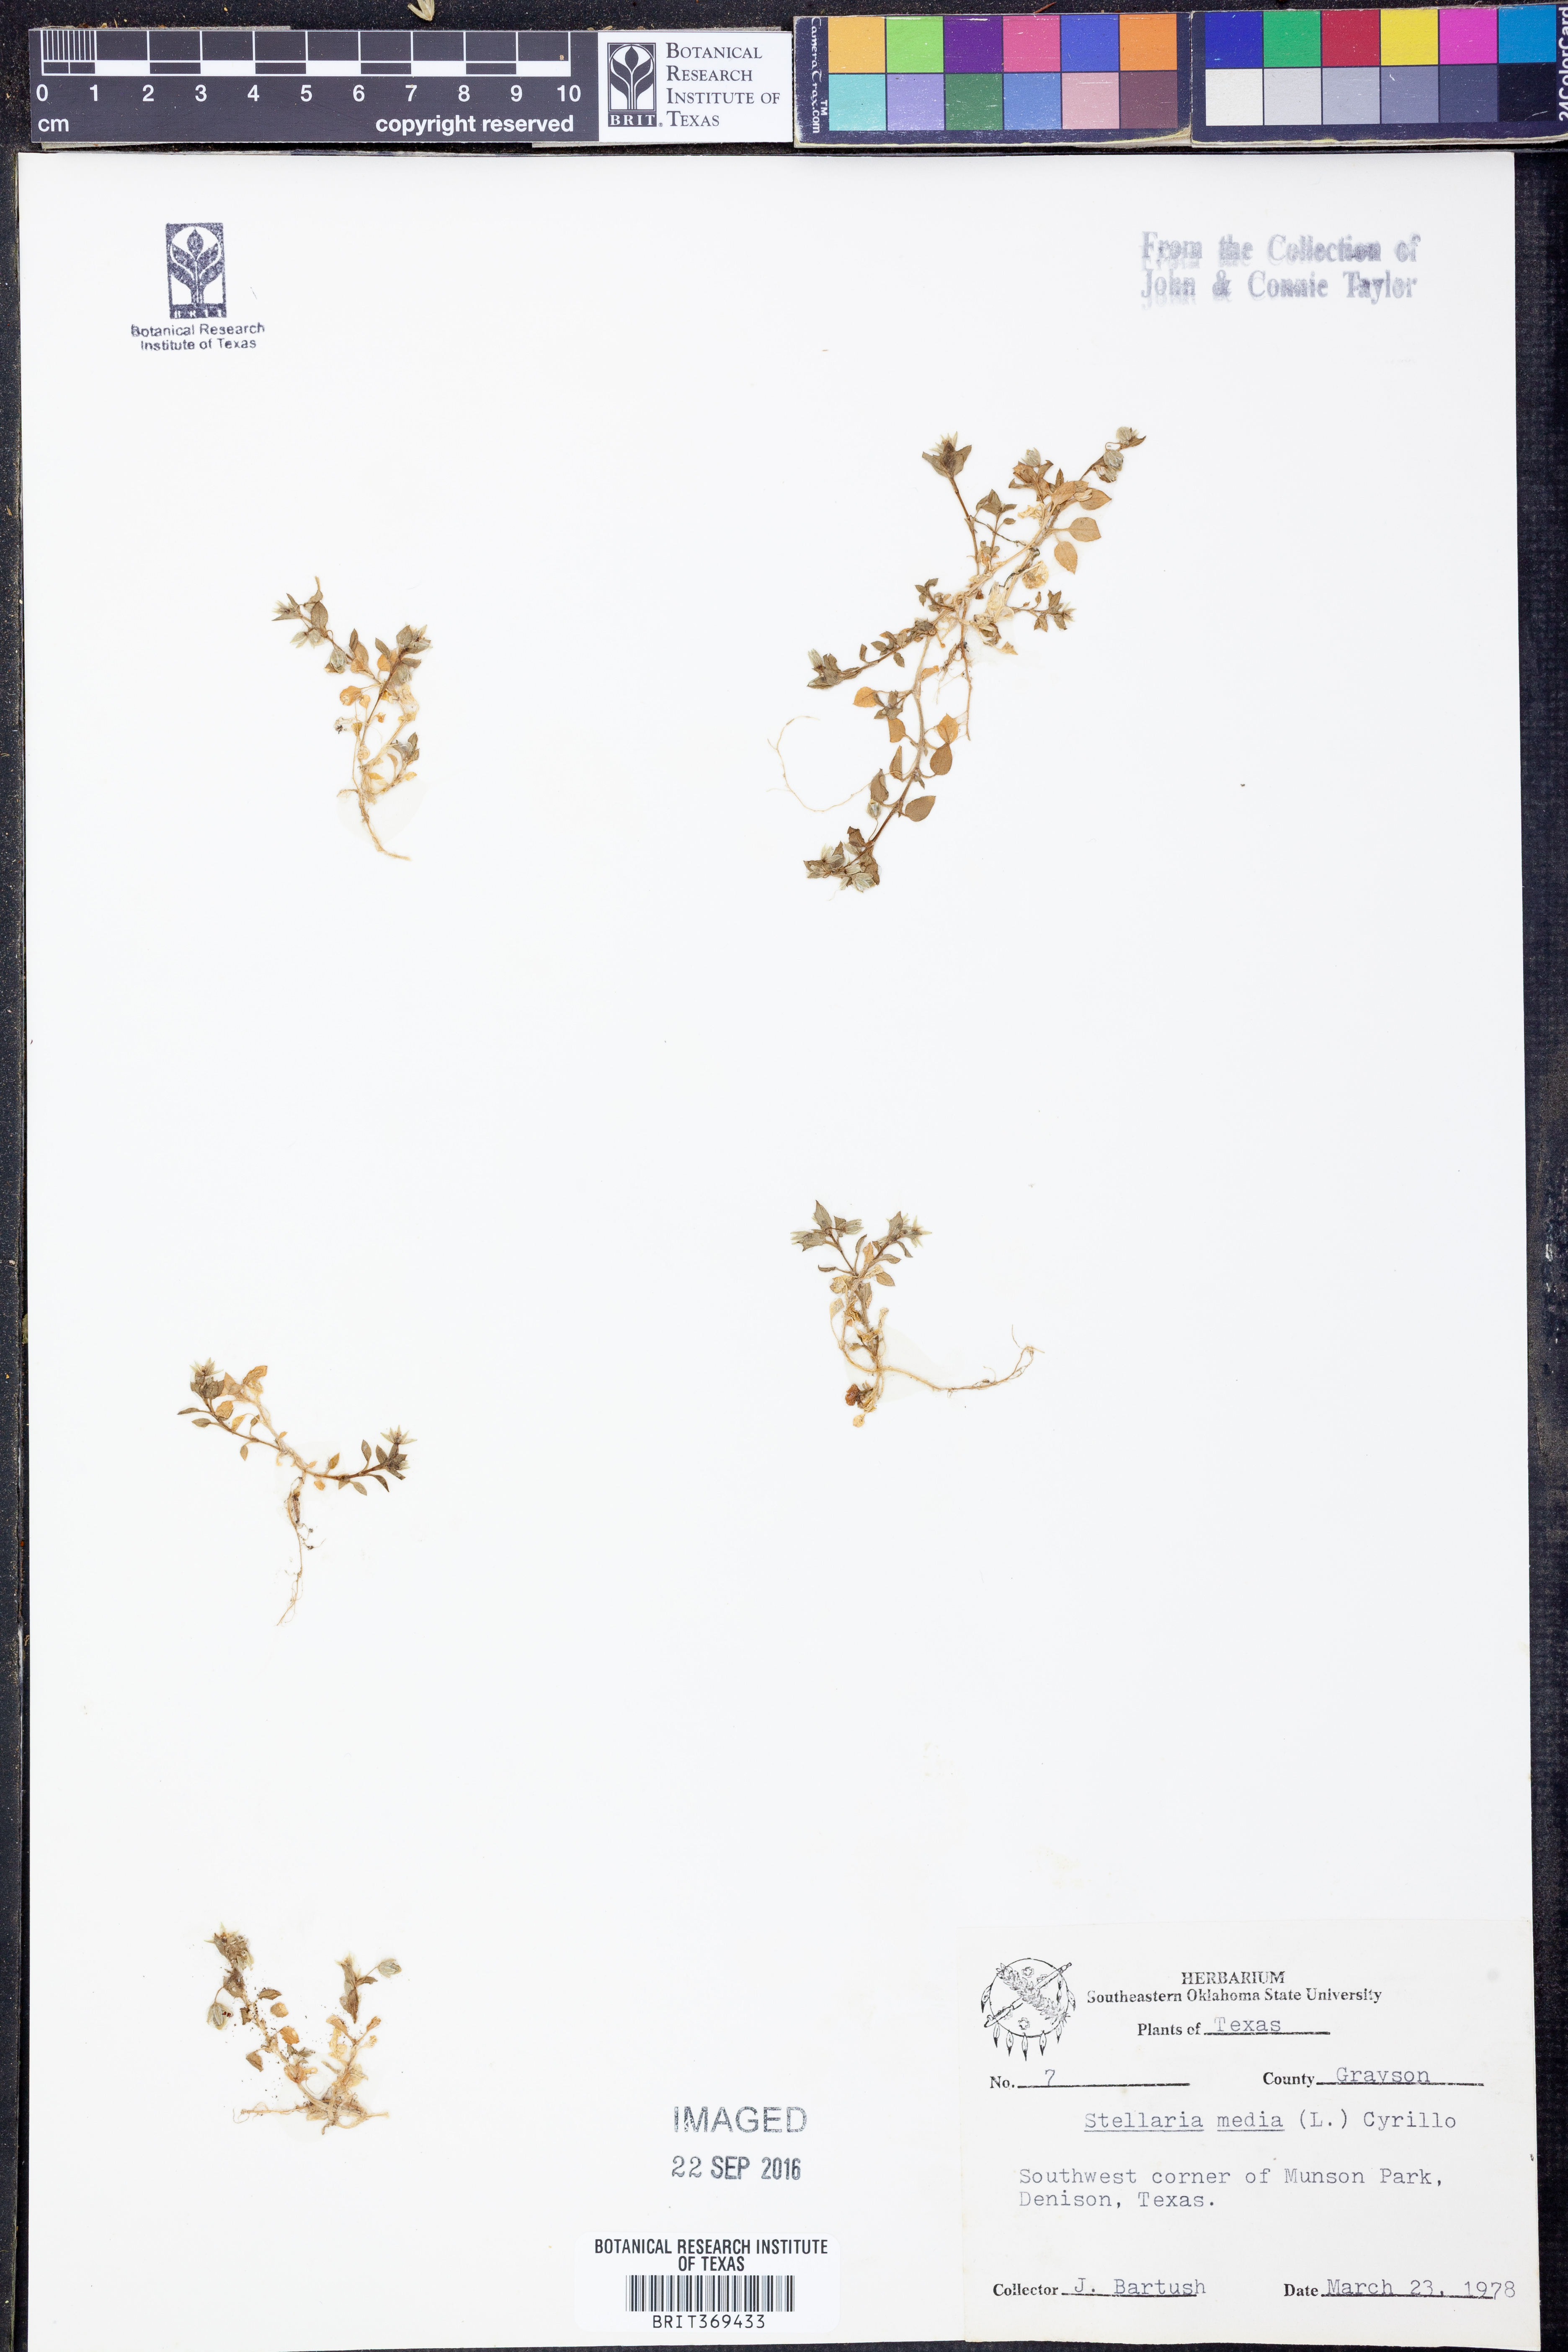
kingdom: Plantae
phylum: Tracheophyta
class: Magnoliopsida
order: Caryophyllales
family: Caryophyllaceae
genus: Stellaria
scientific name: Stellaria media
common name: Common chickweed
